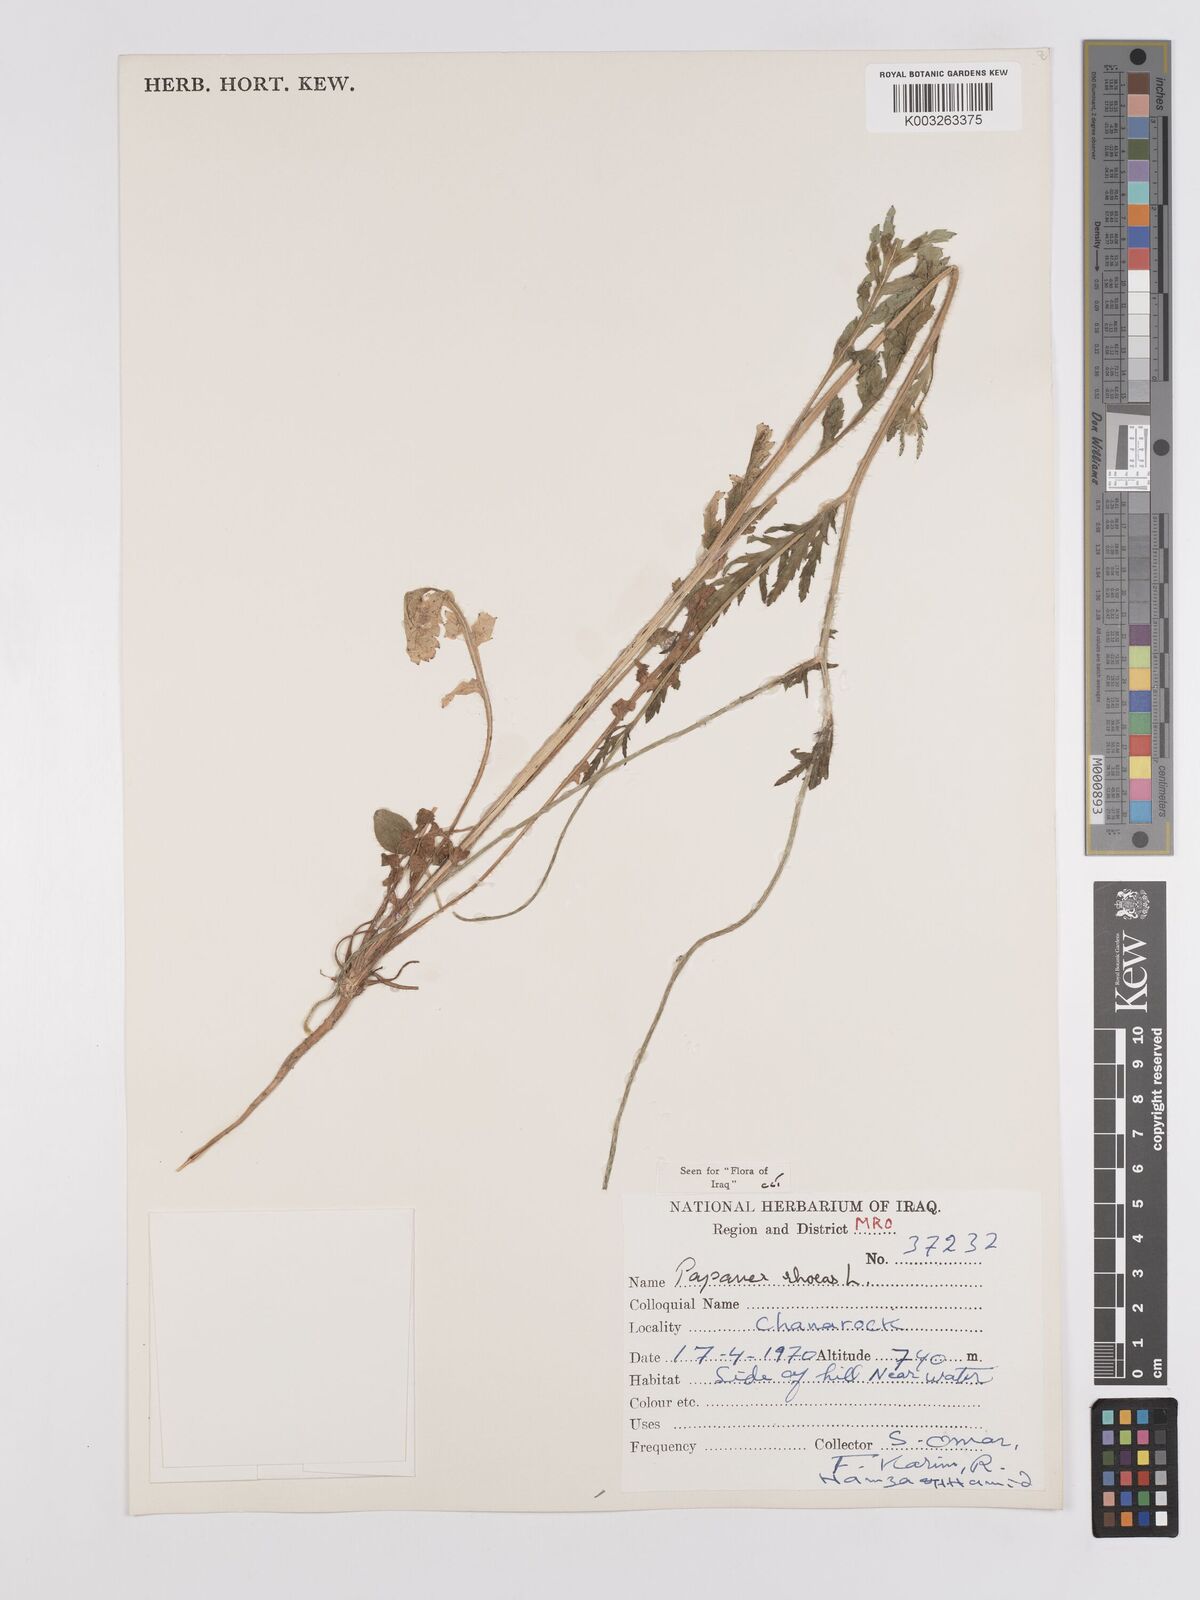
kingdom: Plantae
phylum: Tracheophyta
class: Magnoliopsida
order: Ranunculales
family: Papaveraceae
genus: Papaver
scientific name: Papaver rhoeas
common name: Corn poppy
